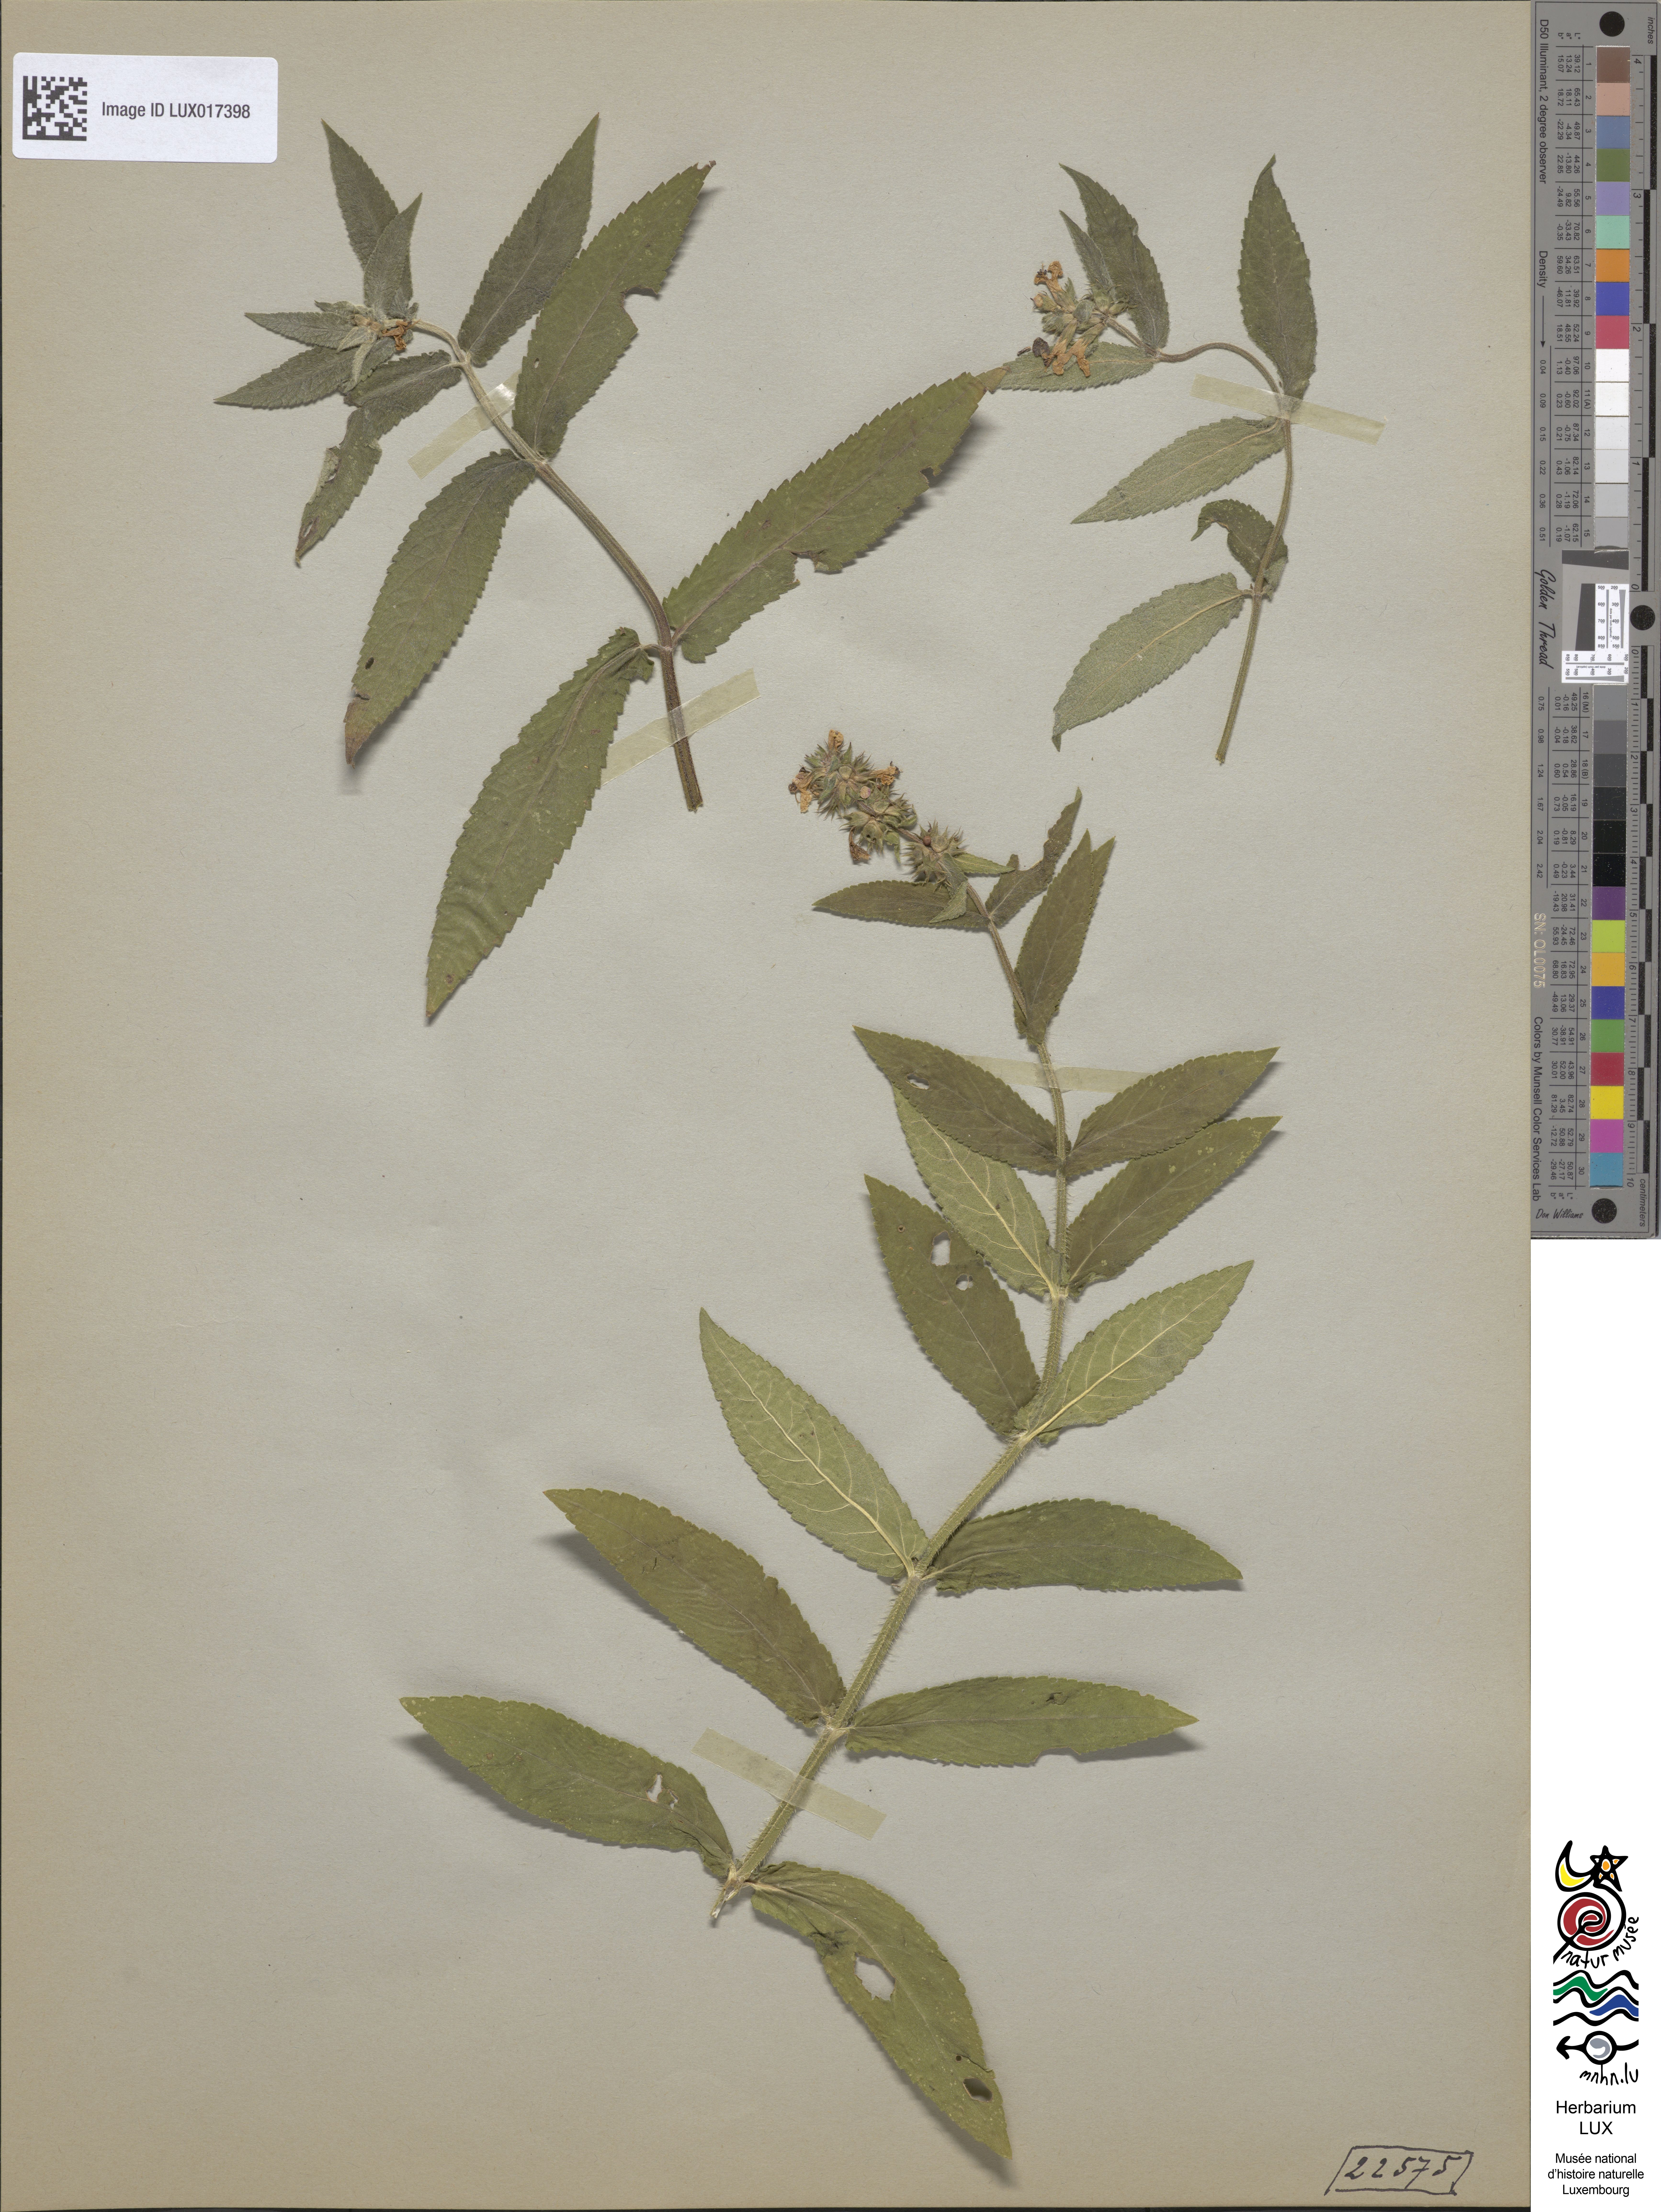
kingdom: Plantae
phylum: Tracheophyta
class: Magnoliopsida
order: Lamiales
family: Lamiaceae
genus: Stachys
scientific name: Stachys palustris
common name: Marsh woundwort
